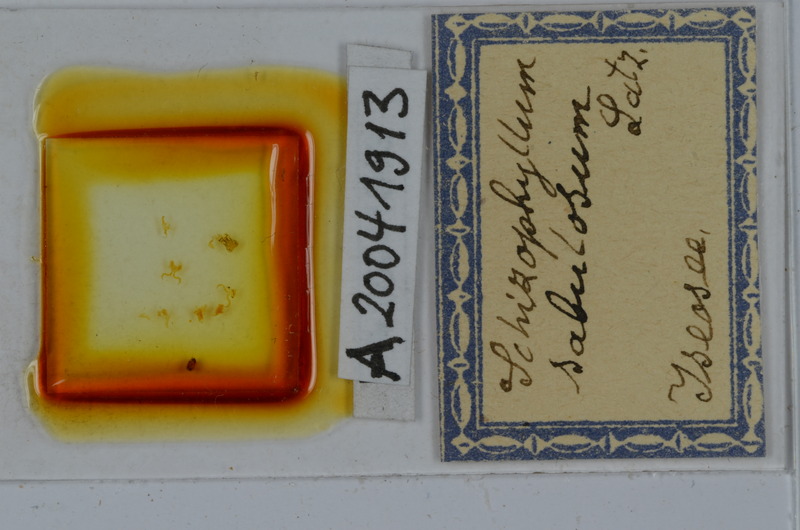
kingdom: Animalia
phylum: Arthropoda
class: Diplopoda
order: Julida
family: Julidae
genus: Schizophyllum
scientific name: Schizophyllum sabulosum
